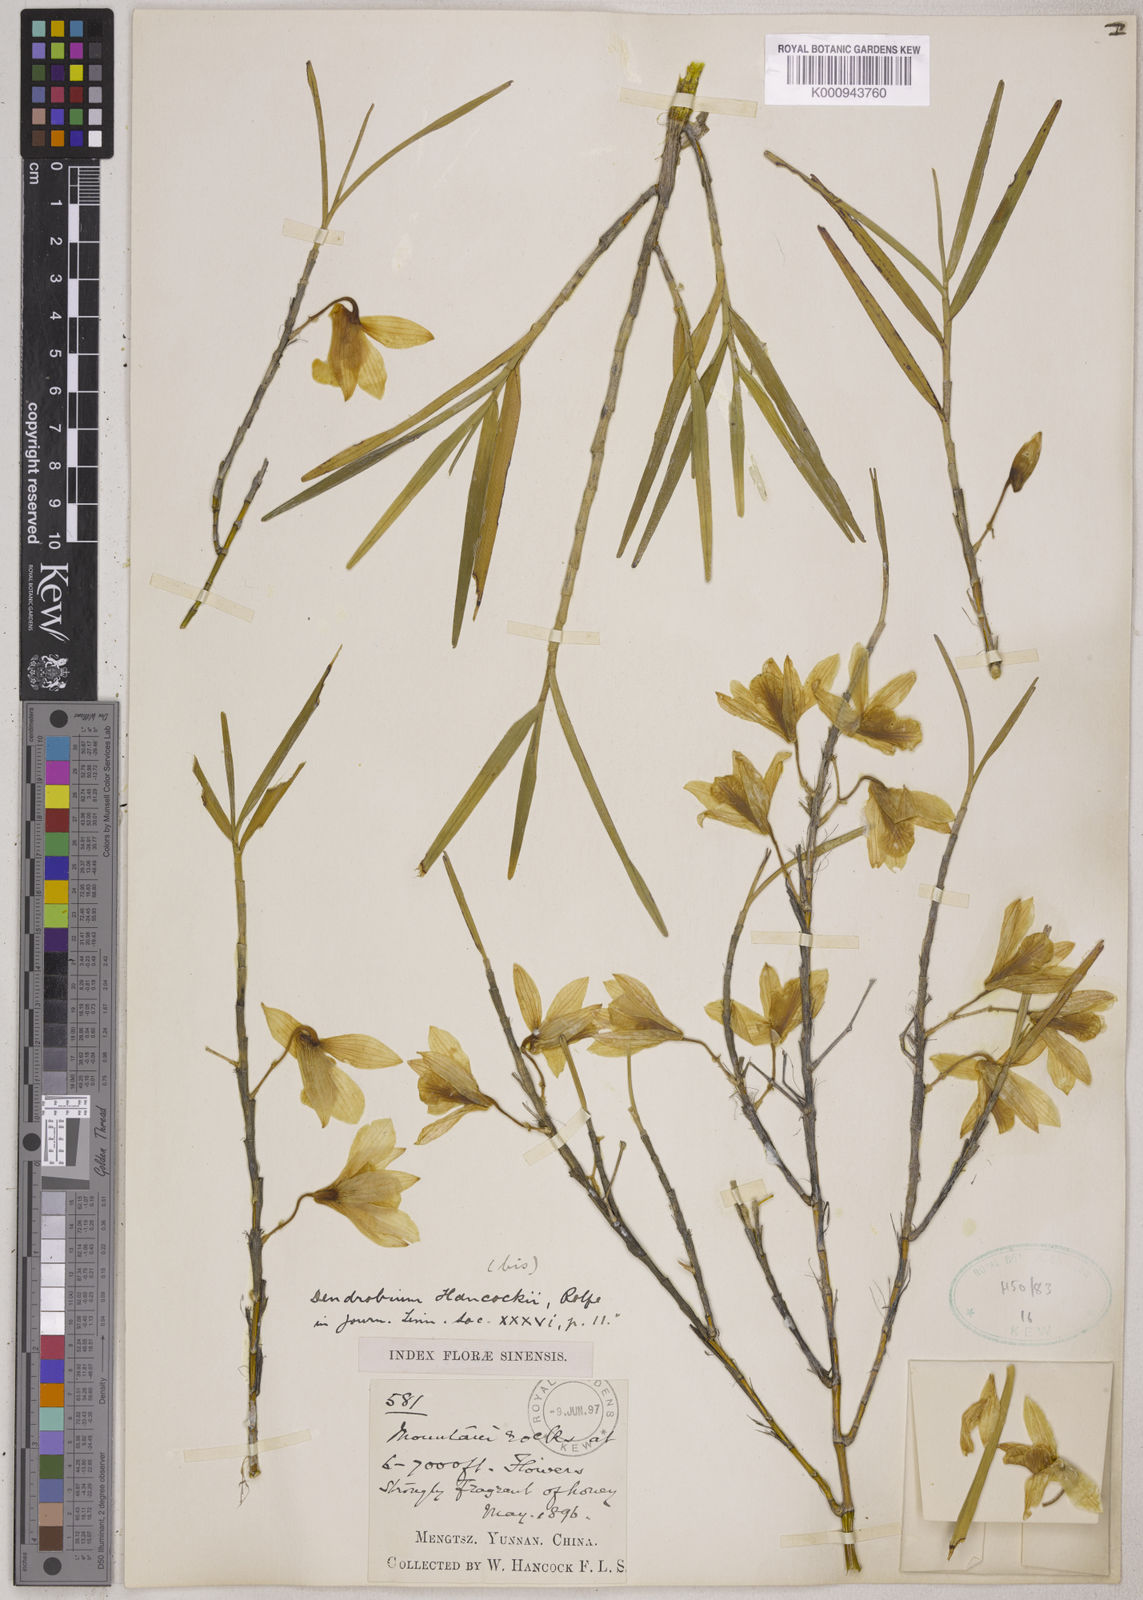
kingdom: Plantae
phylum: Tracheophyta
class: Liliopsida
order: Asparagales
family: Orchidaceae
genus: Dendrobium
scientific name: Dendrobium hancockii
